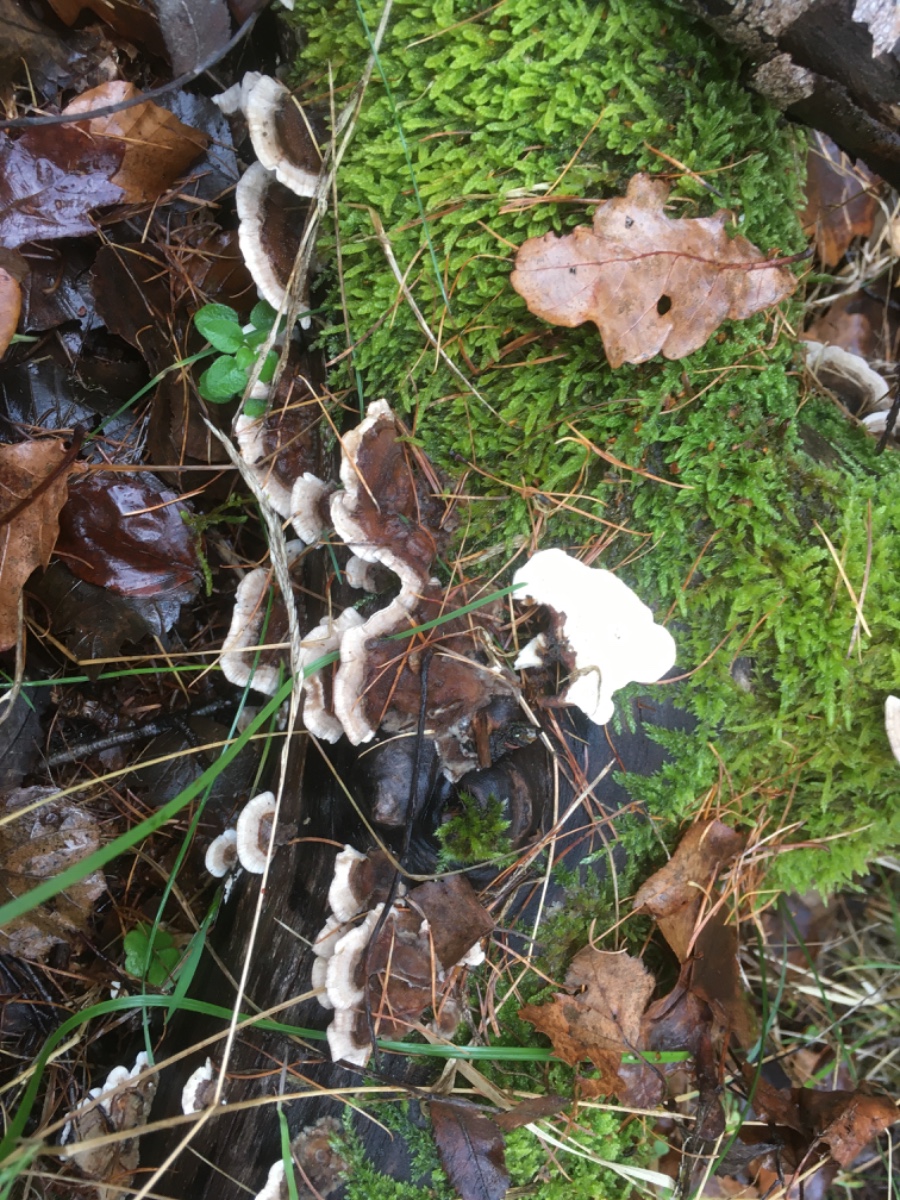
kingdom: Fungi
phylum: Basidiomycota
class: Agaricomycetes
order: Polyporales
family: Polyporaceae
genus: Trametes
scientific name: Trametes versicolor
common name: broget læderporesvamp
